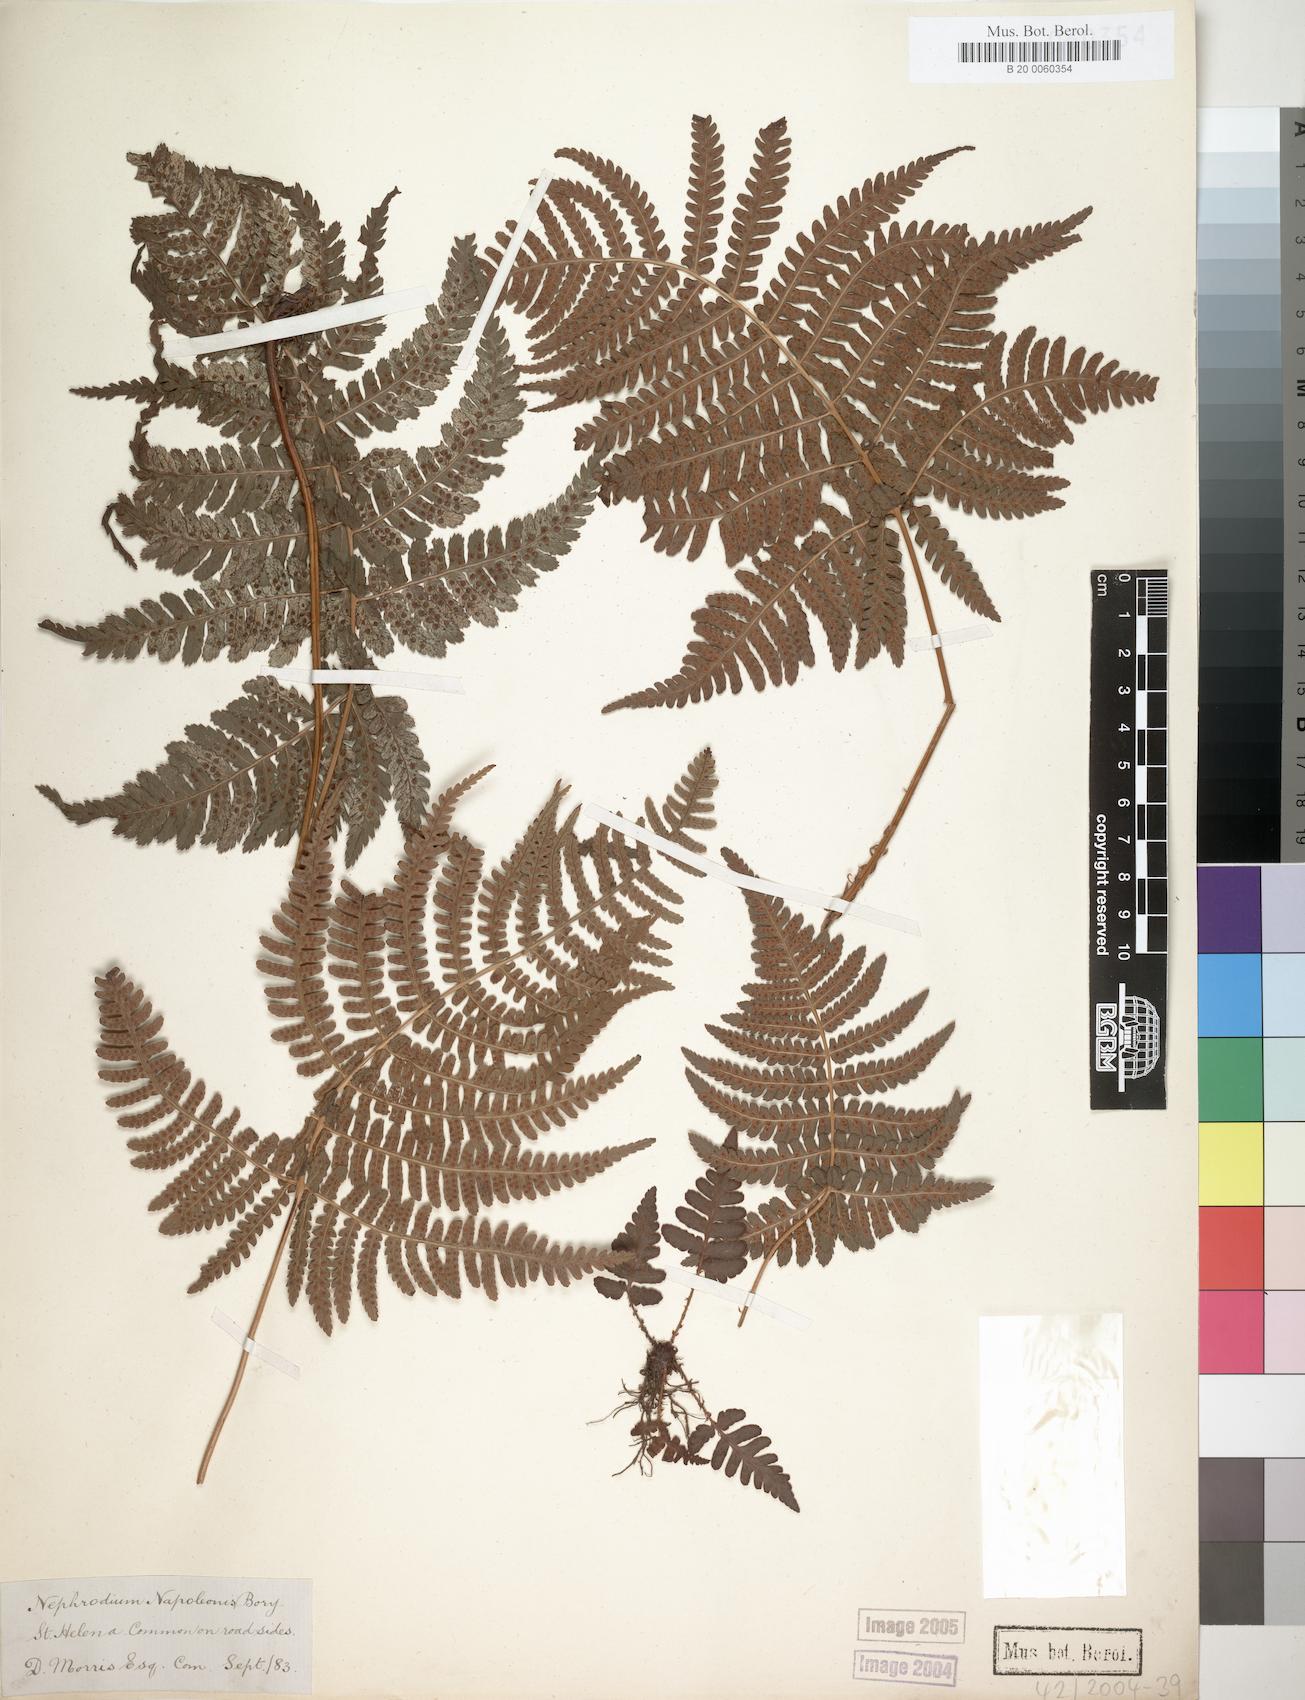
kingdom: Plantae
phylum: Tracheophyta
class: Polypodiopsida
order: Polypodiales
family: Dryopteridaceae
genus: Dryopteris
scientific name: Dryopteris napoleonis
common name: Small kidney fern
